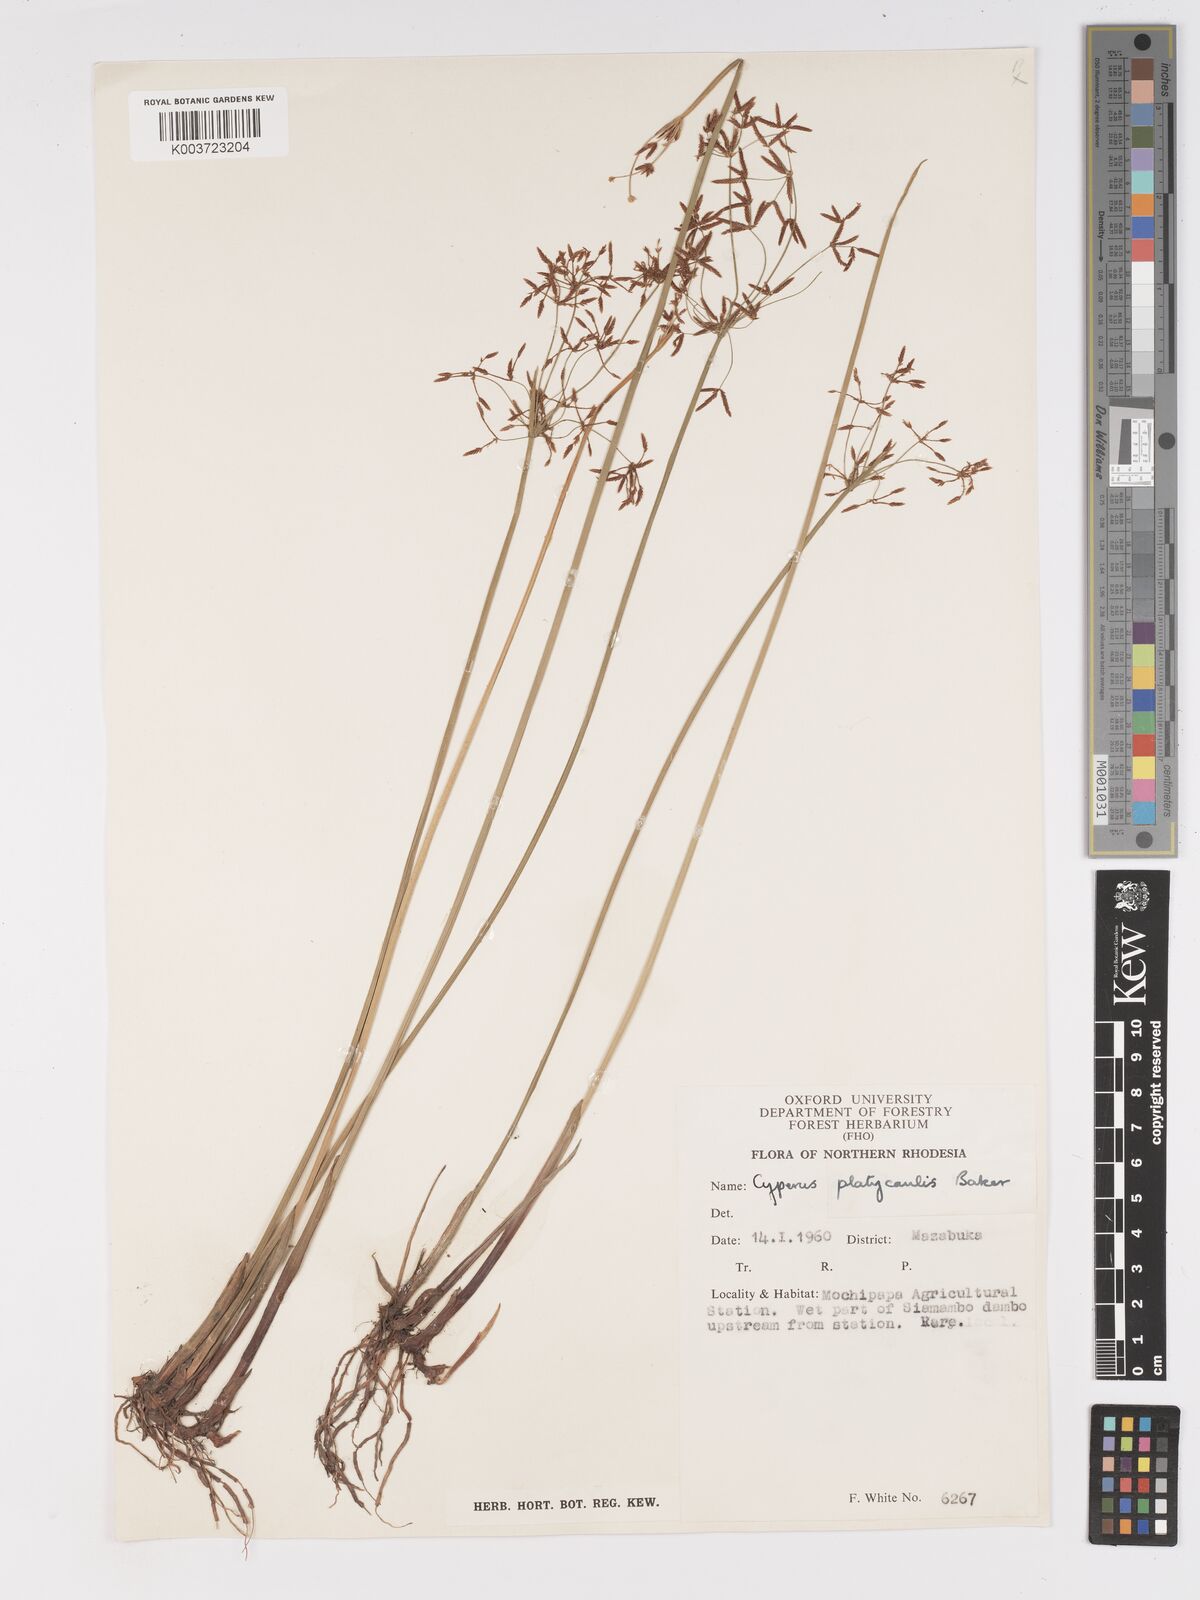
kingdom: Plantae
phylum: Tracheophyta
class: Liliopsida
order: Poales
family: Cyperaceae
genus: Cyperus
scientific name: Cyperus haspan
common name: Haspan flatsedge
